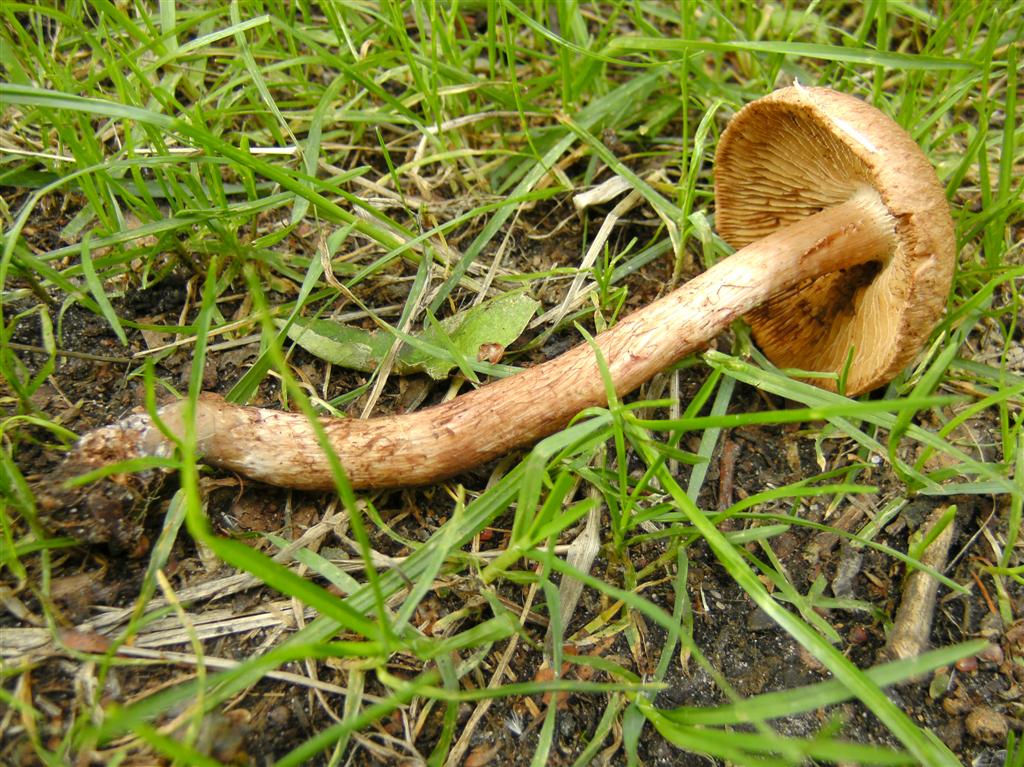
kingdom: Fungi
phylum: Basidiomycota
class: Agaricomycetes
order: Agaricales
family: Inocybaceae
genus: Inosperma
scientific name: Inosperma bongardii
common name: Bongards trævlhat
